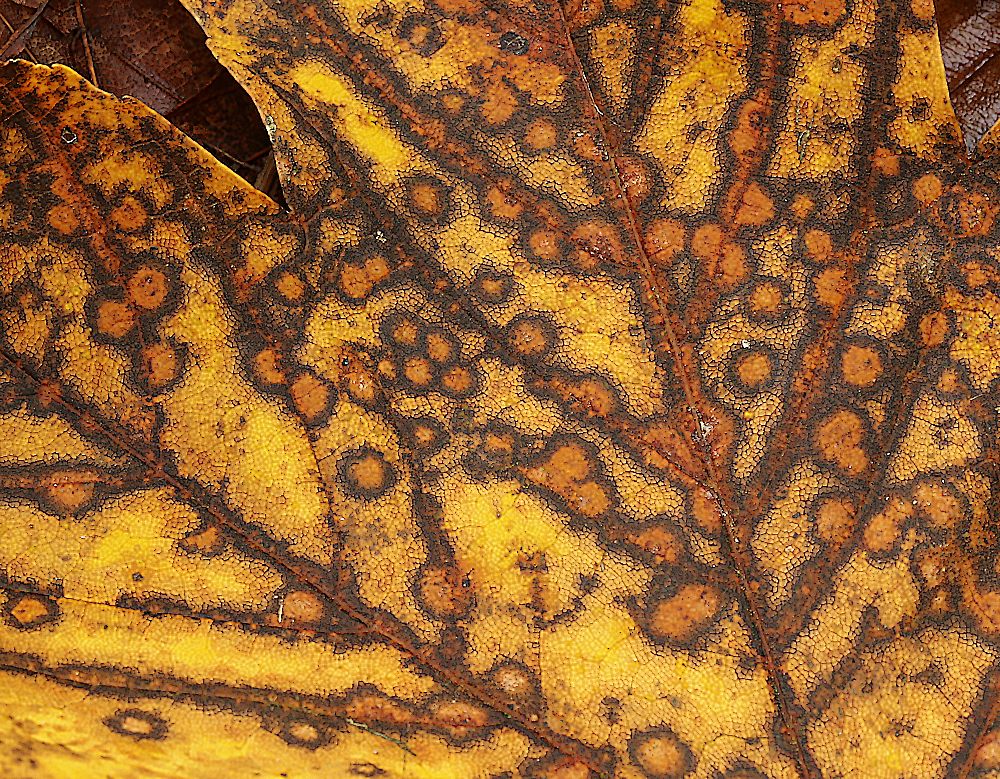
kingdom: Fungi
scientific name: Fungi
